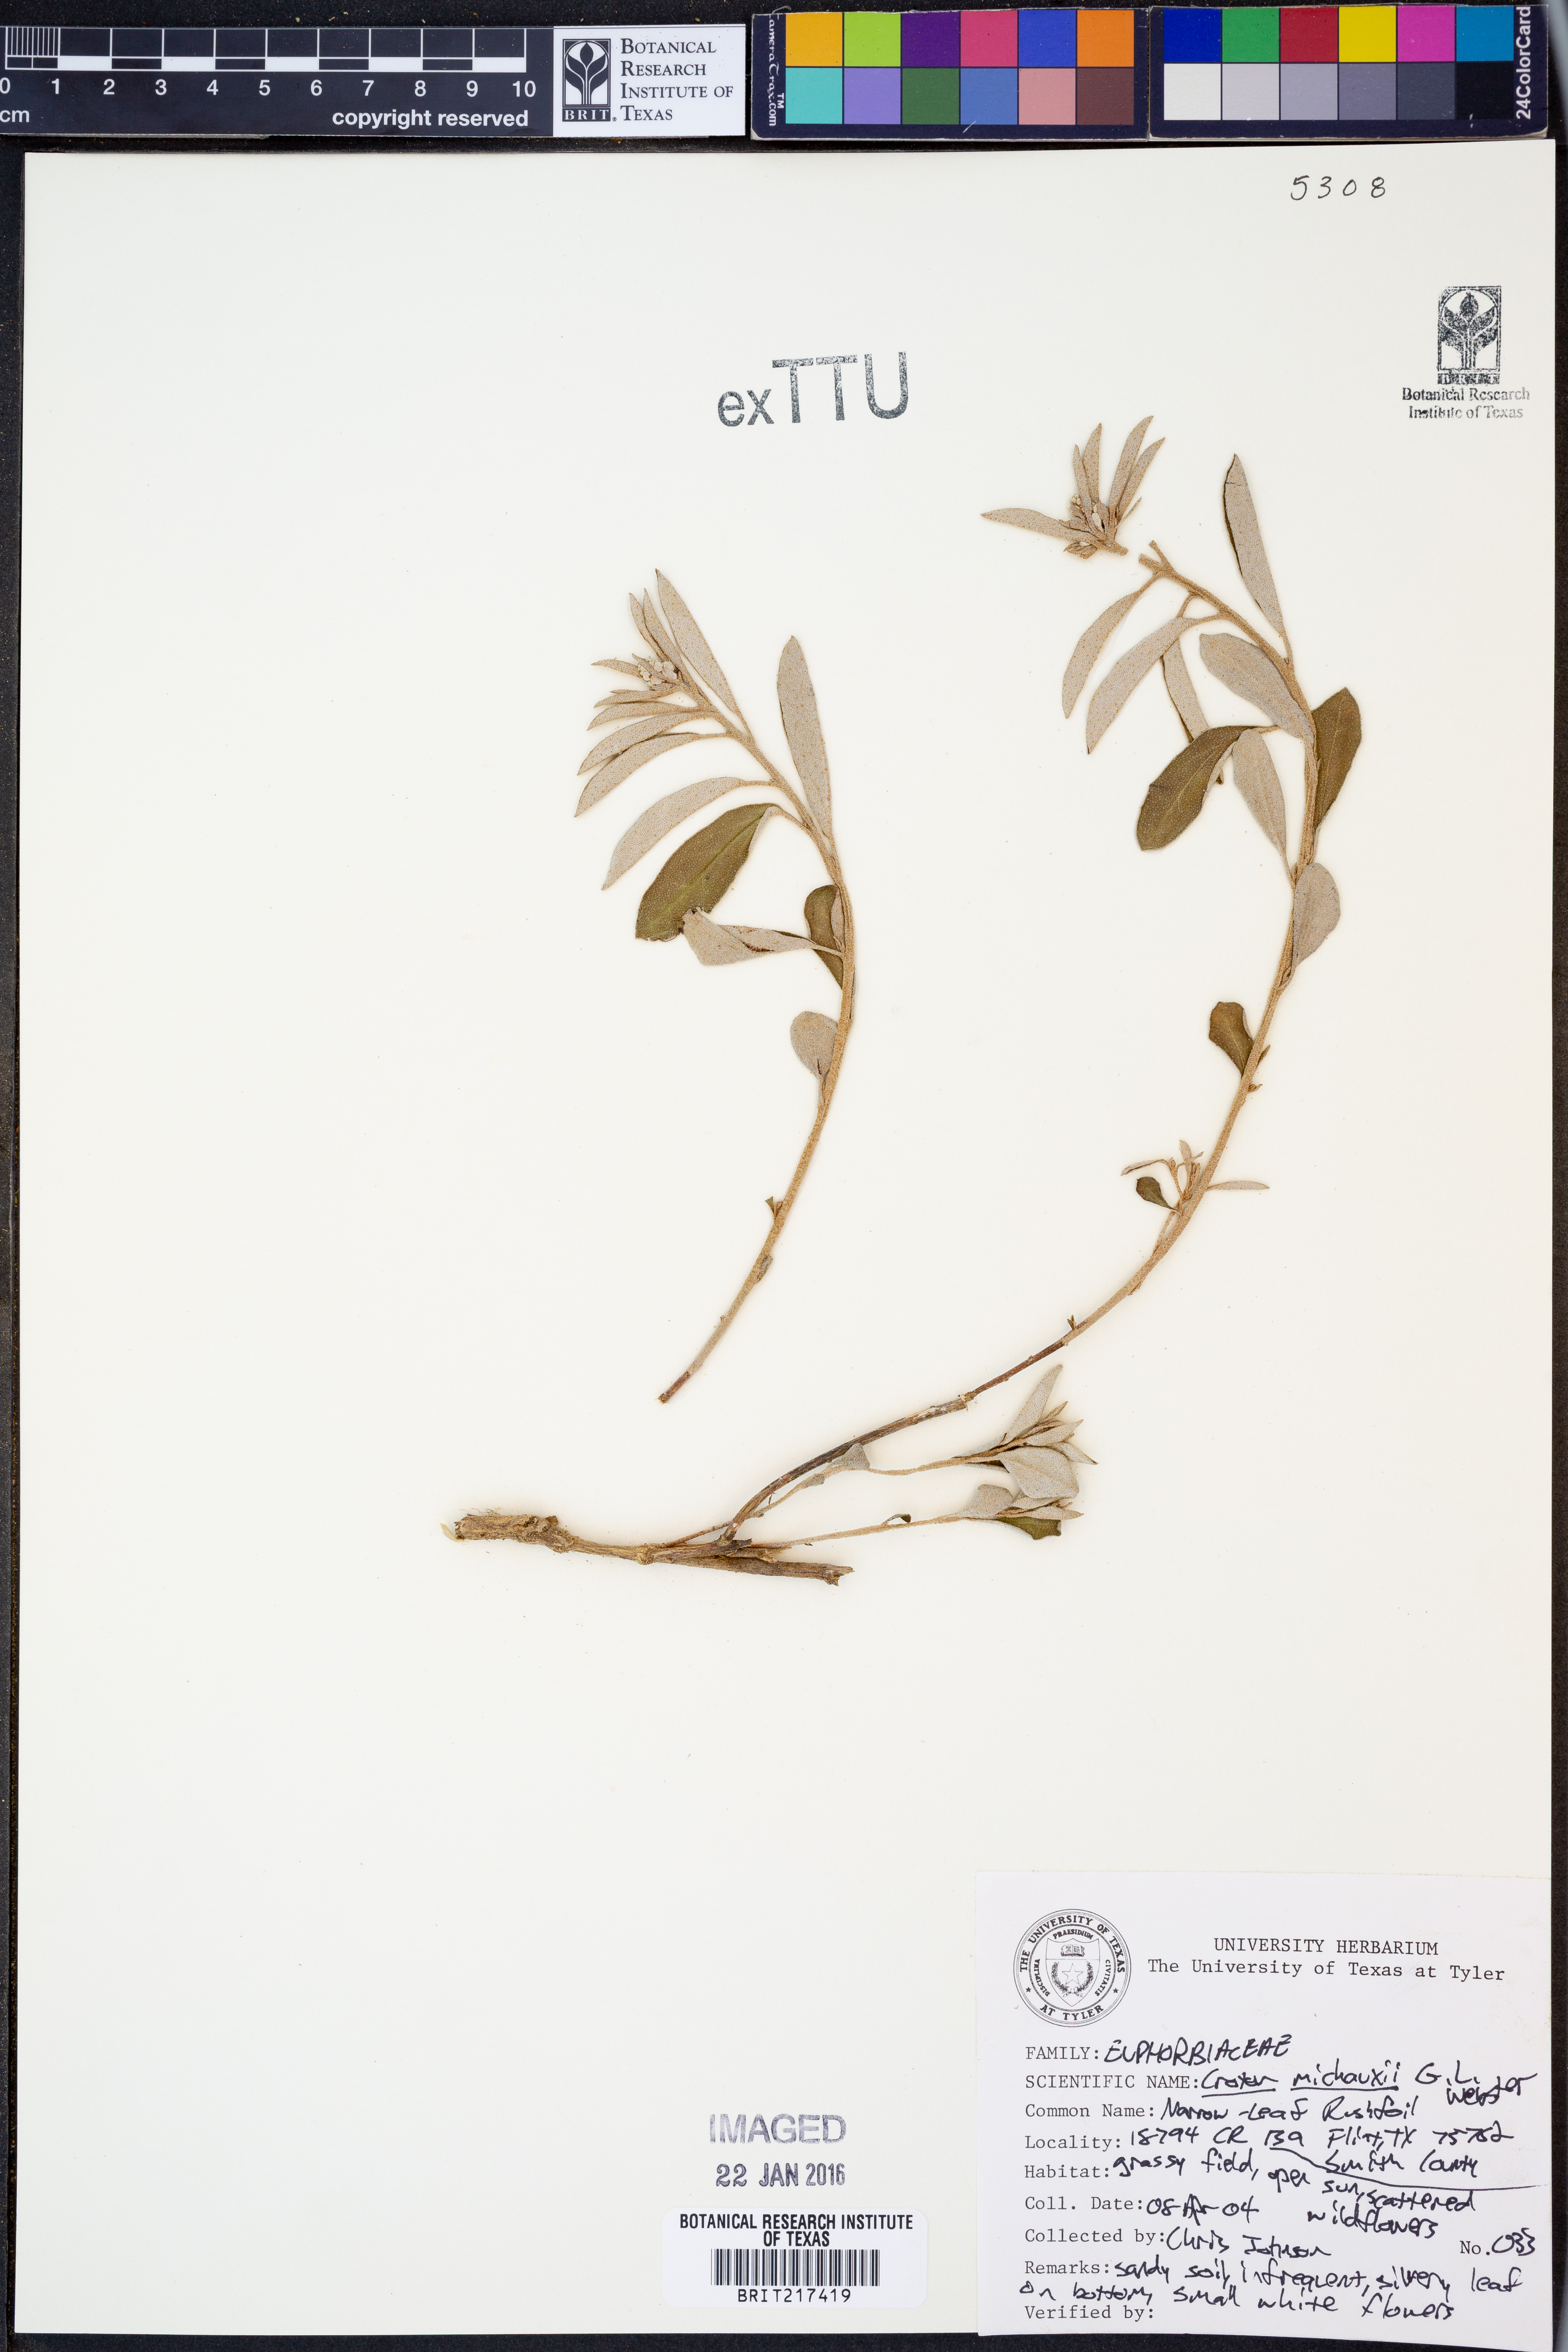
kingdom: Plantae
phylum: Tracheophyta
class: Magnoliopsida
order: Malpighiales
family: Euphorbiaceae
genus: Croton
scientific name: Croton michauxii
